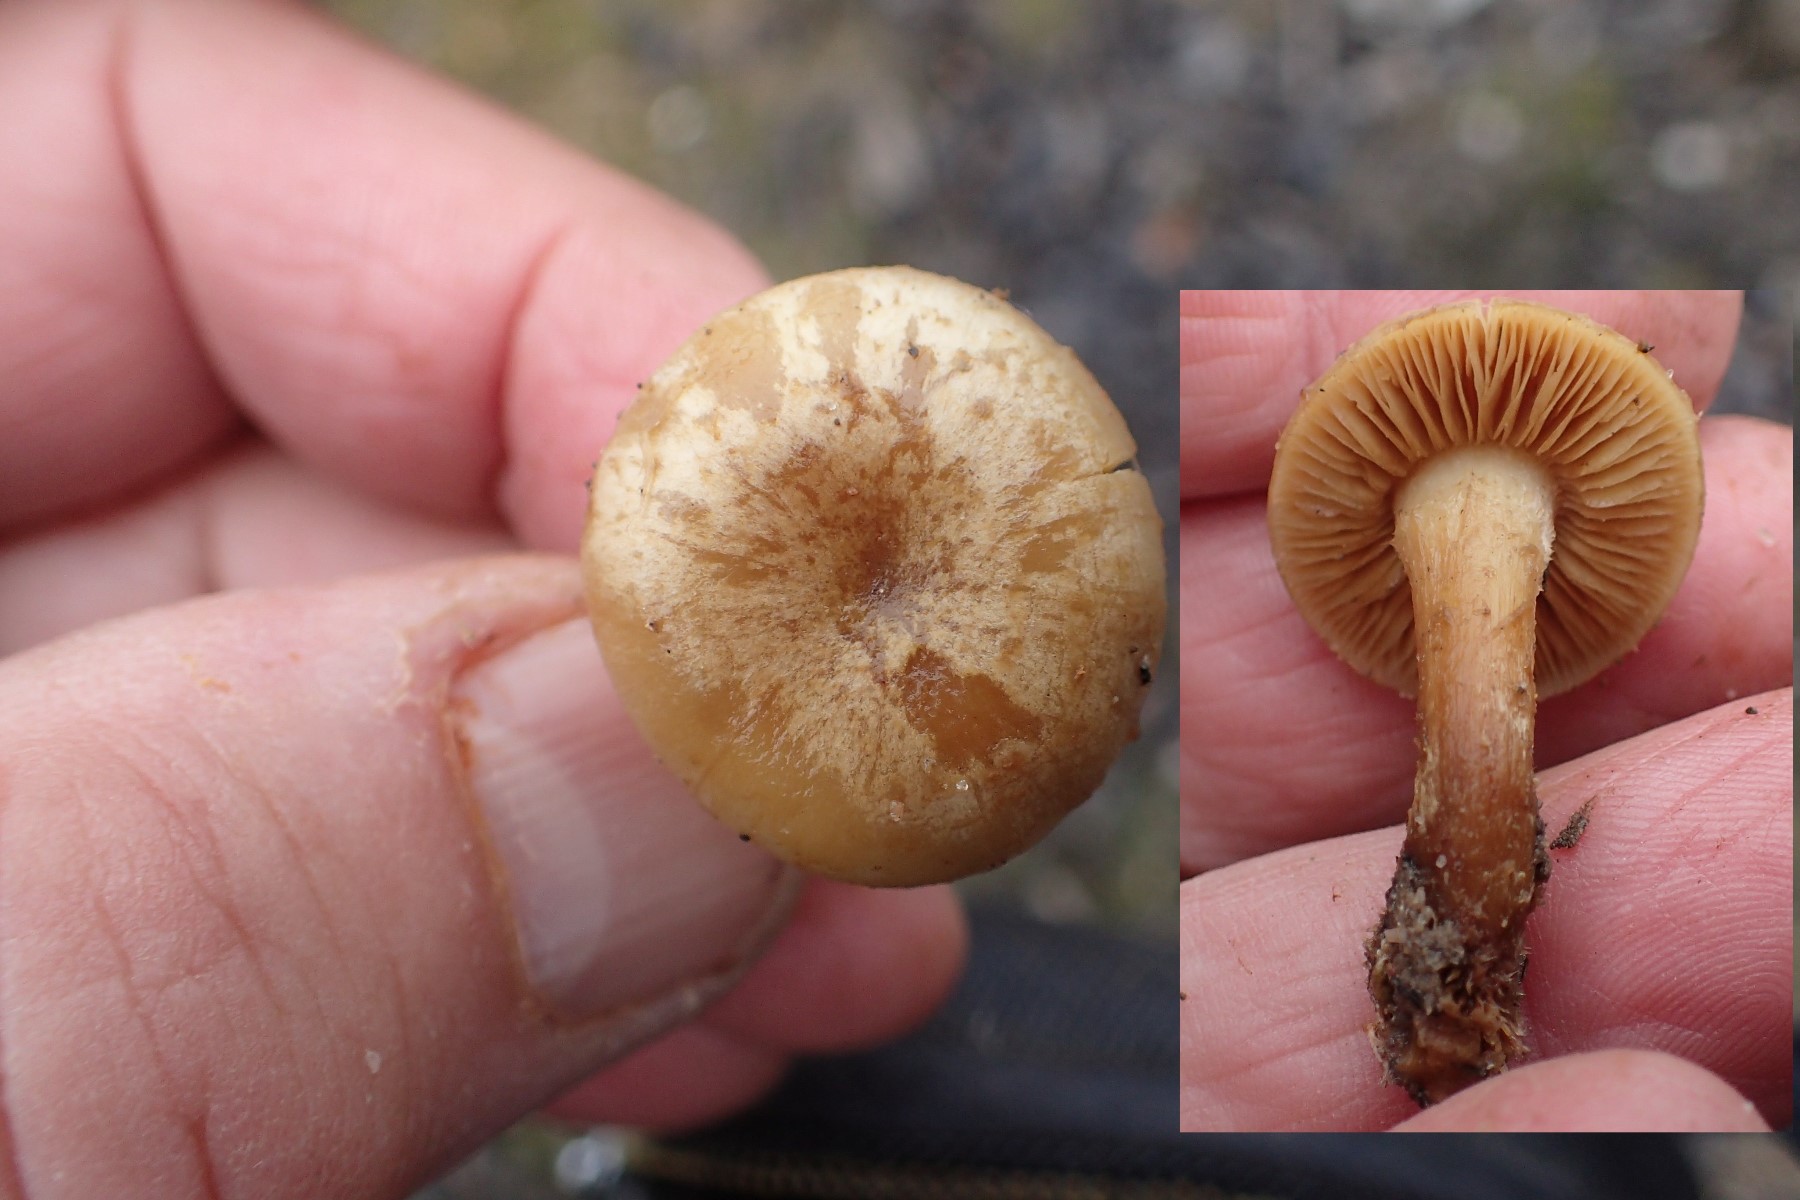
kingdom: Fungi
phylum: Basidiomycota
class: Agaricomycetes
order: Agaricales
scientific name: Agaricales
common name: champignonordenen
